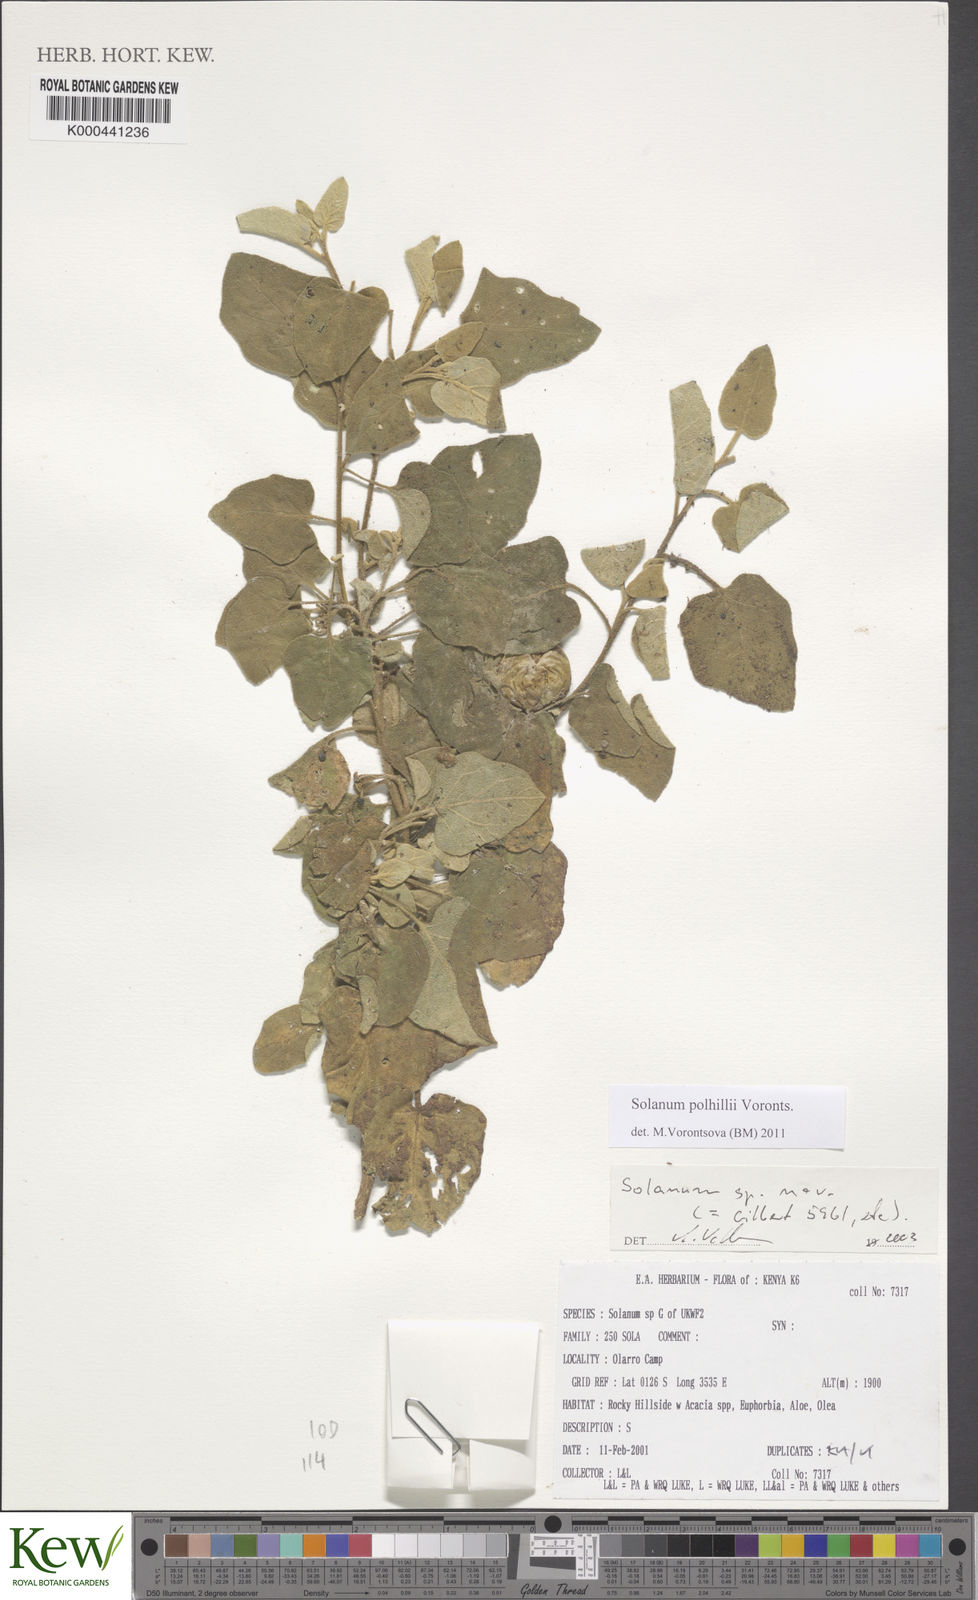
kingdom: Plantae
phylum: Tracheophyta
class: Magnoliopsida
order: Solanales
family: Solanaceae
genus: Solanum
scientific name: Solanum polhillii
